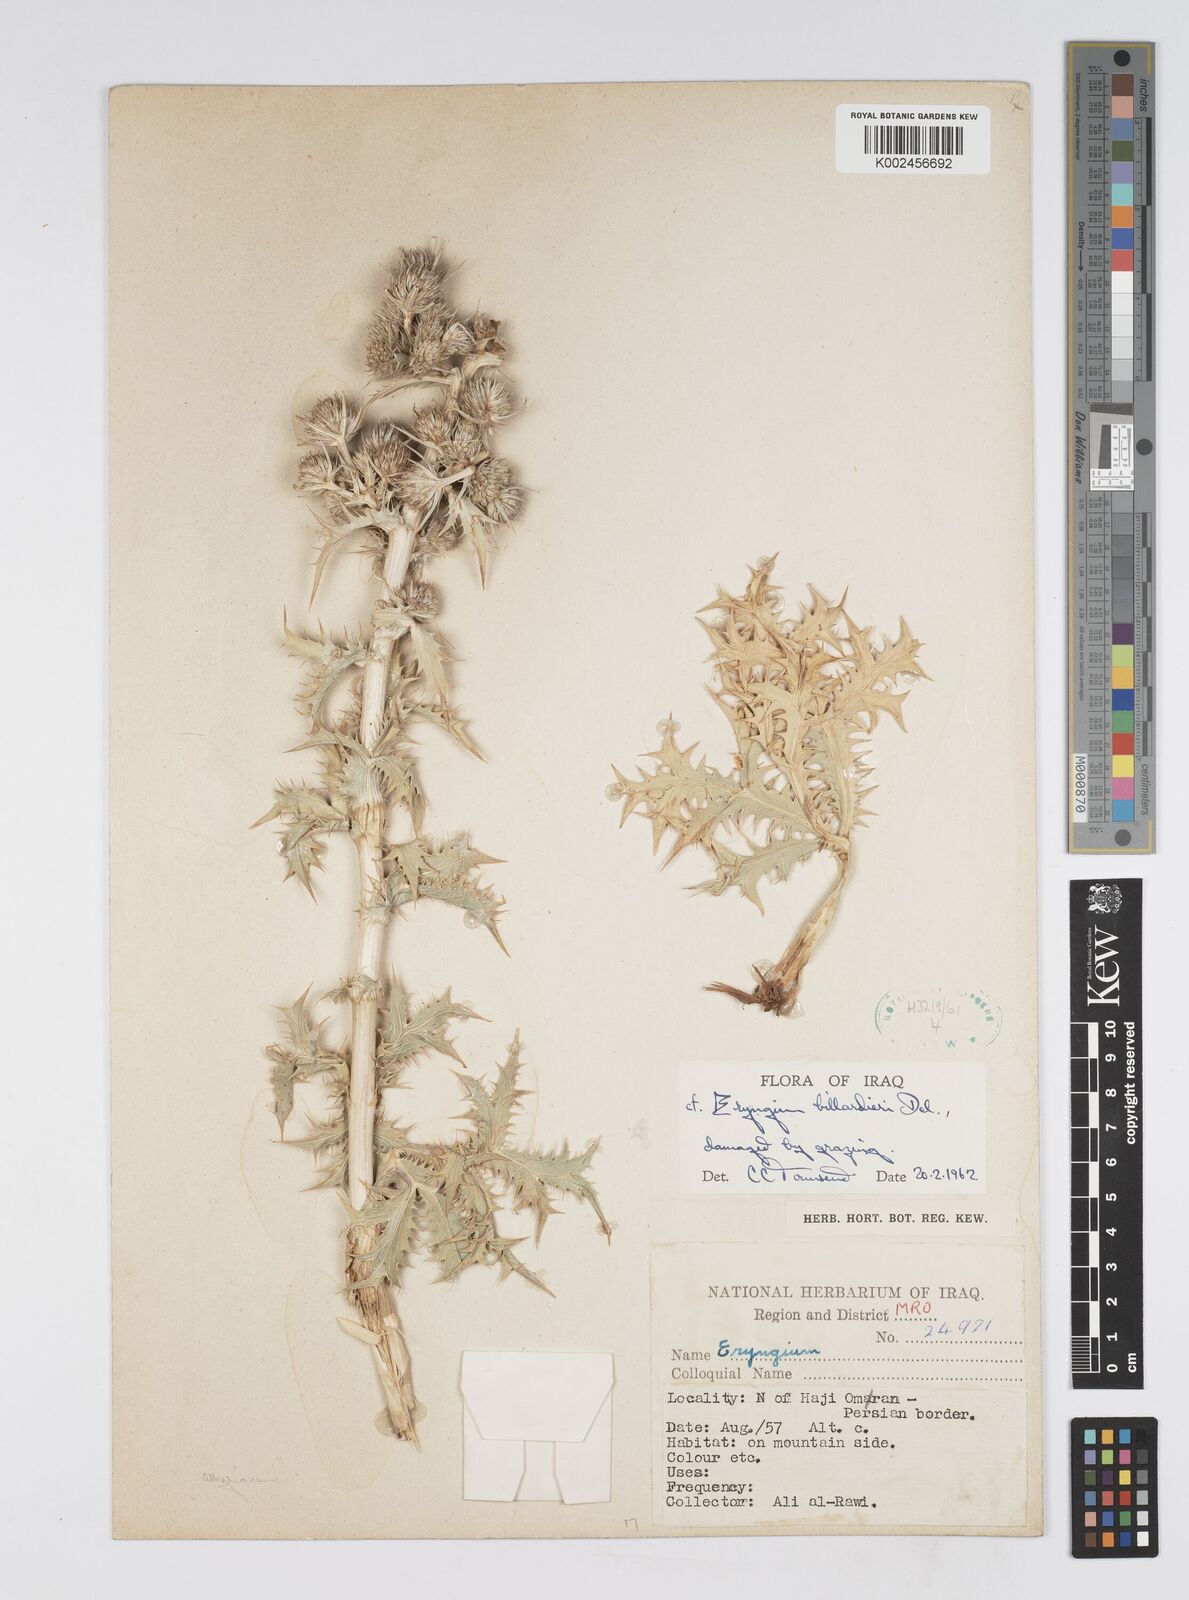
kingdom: Plantae
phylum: Tracheophyta
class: Magnoliopsida
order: Apiales
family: Apiaceae
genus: Eryngium
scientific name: Eryngium billardierei
